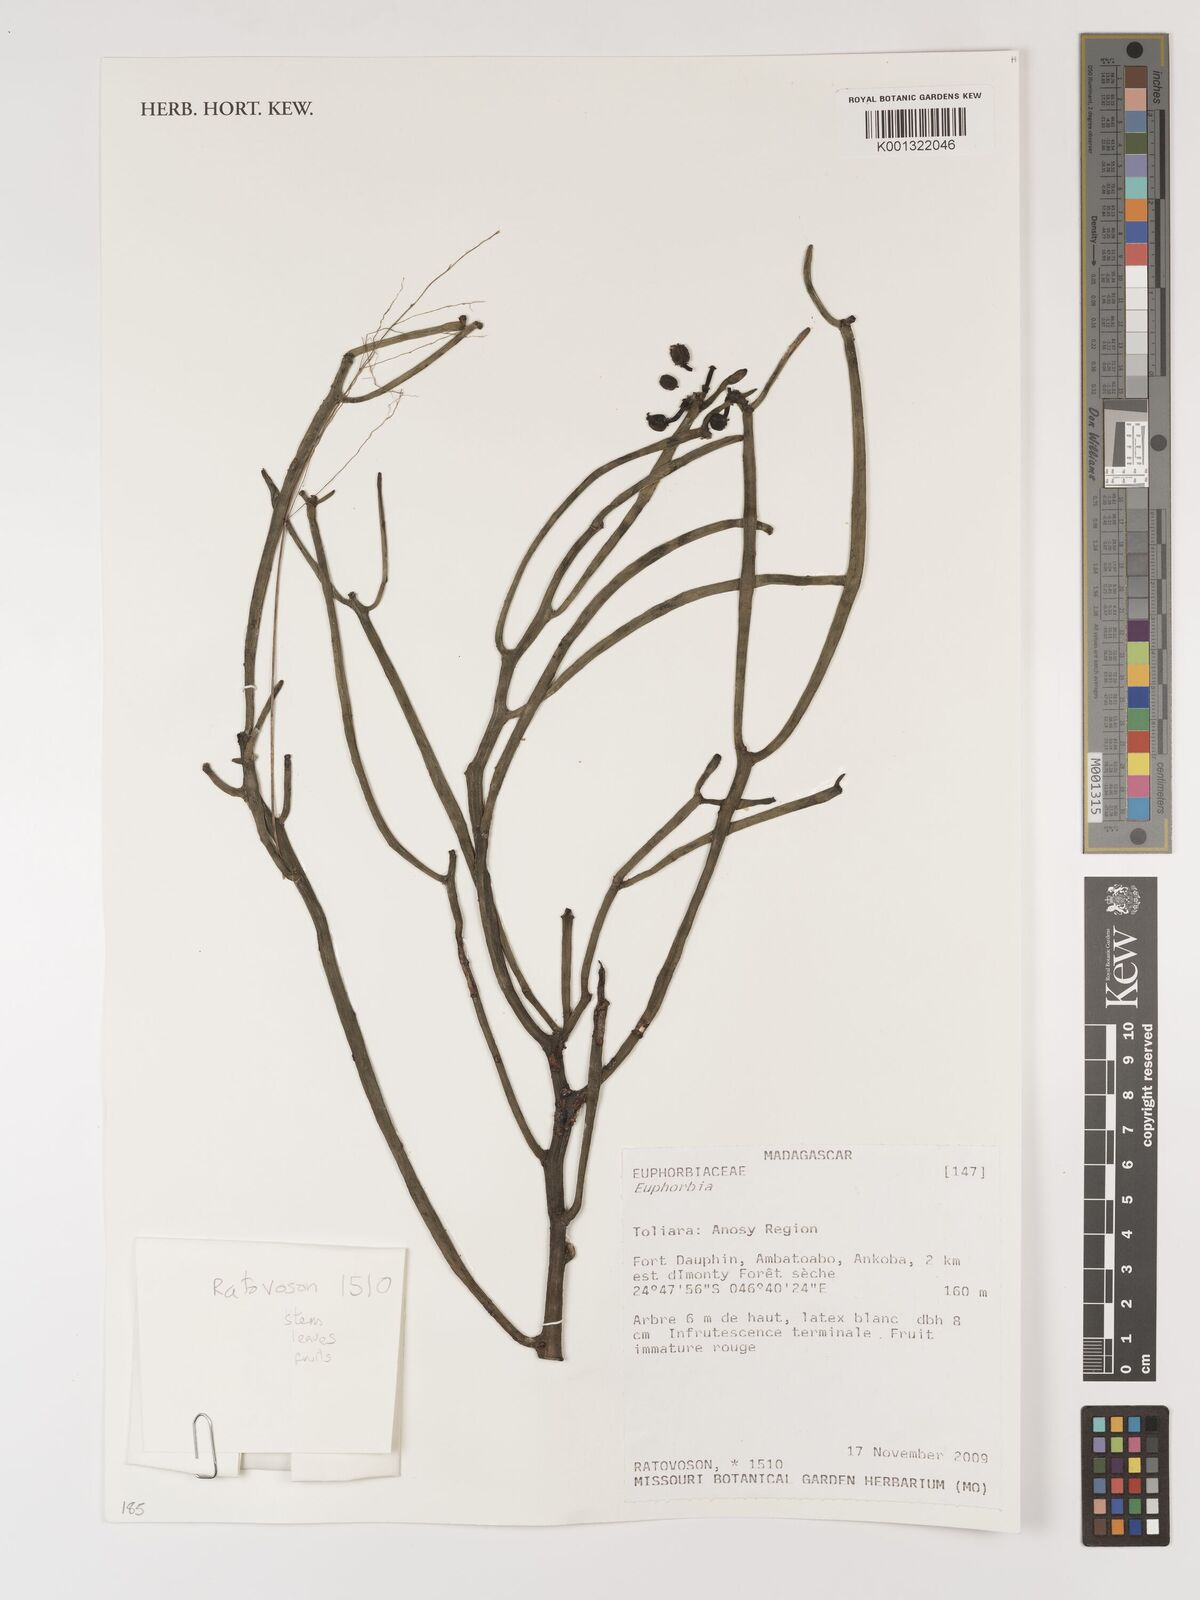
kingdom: Plantae
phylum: Tracheophyta
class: Magnoliopsida
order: Malpighiales
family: Euphorbiaceae
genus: Euphorbia
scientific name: Euphorbia
